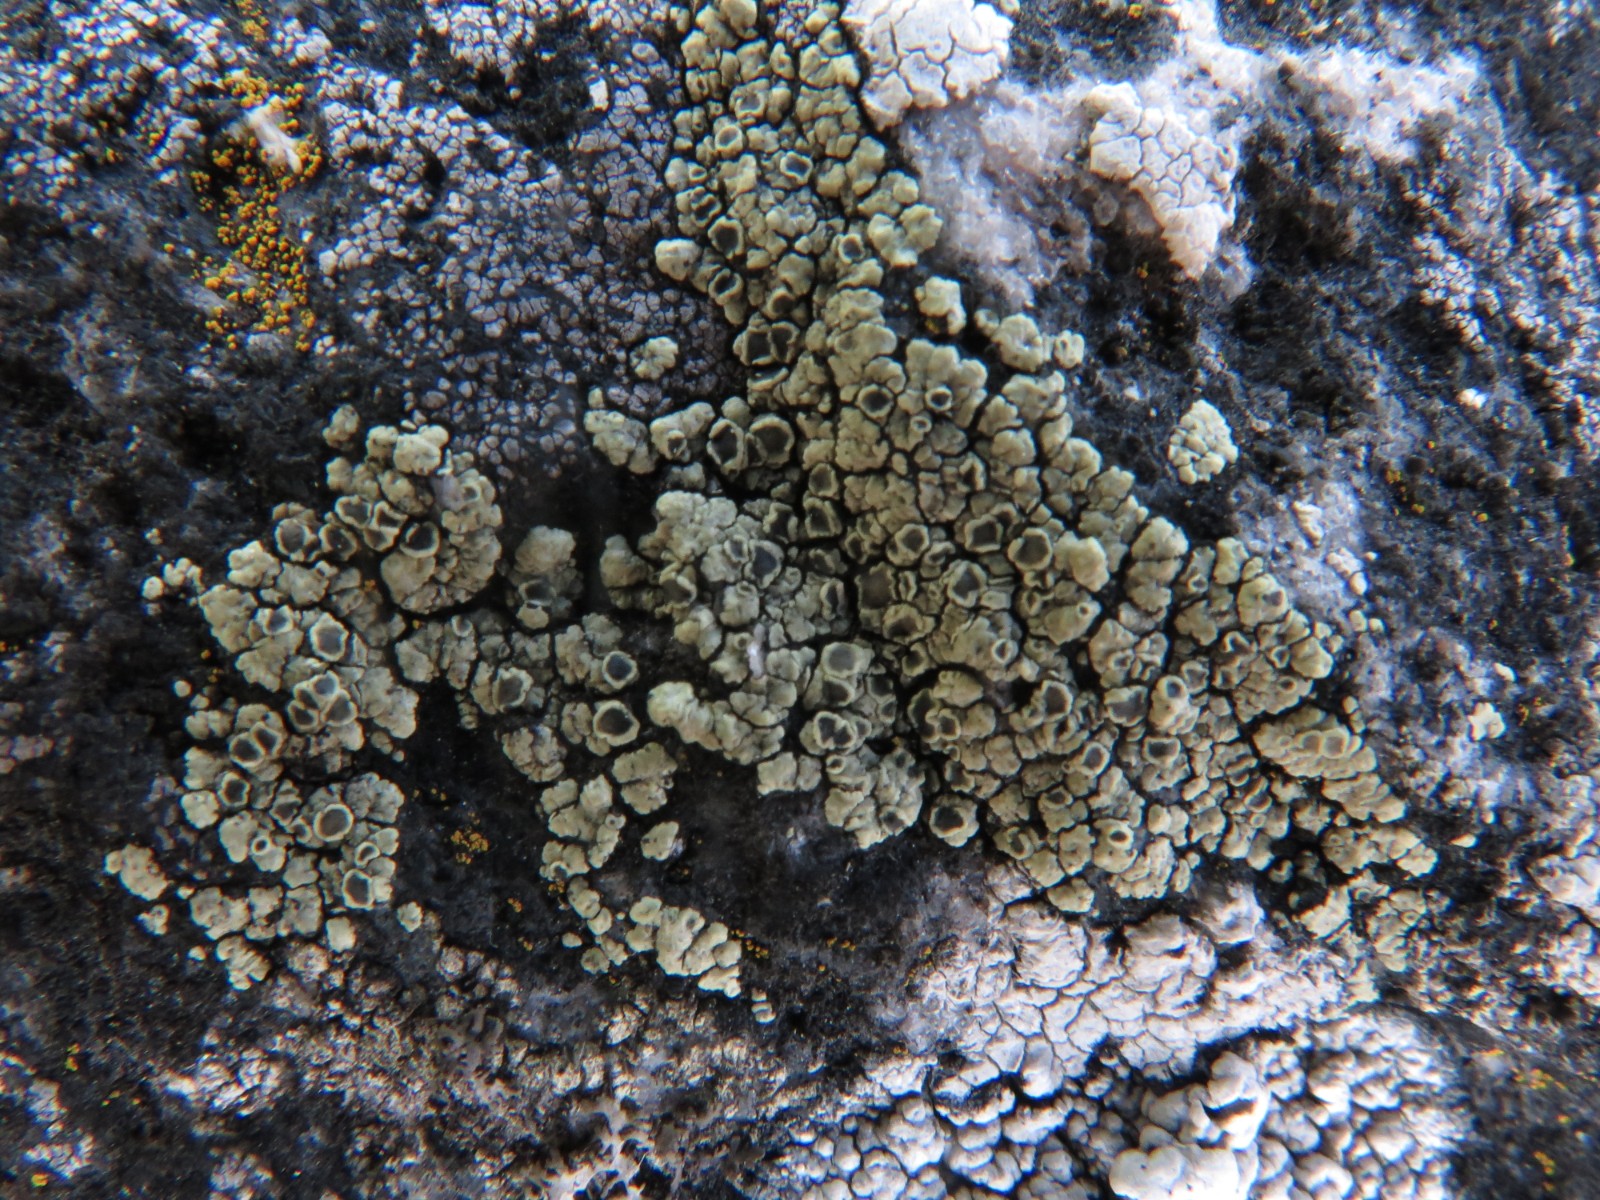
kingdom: Fungi
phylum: Ascomycota
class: Lecanoromycetes
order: Lecanorales
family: Lecanoraceae
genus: Lecanora
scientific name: Lecanora polytropa
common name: bleggrøn kantskivelav
